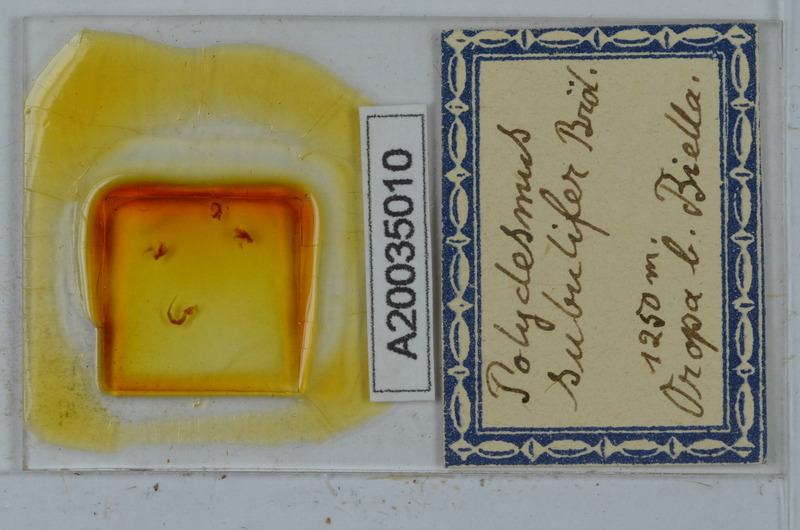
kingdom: Animalia
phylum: Arthropoda
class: Diplopoda
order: Polydesmida
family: Polydesmidae
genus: Polydesmus
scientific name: Polydesmus subulifer
